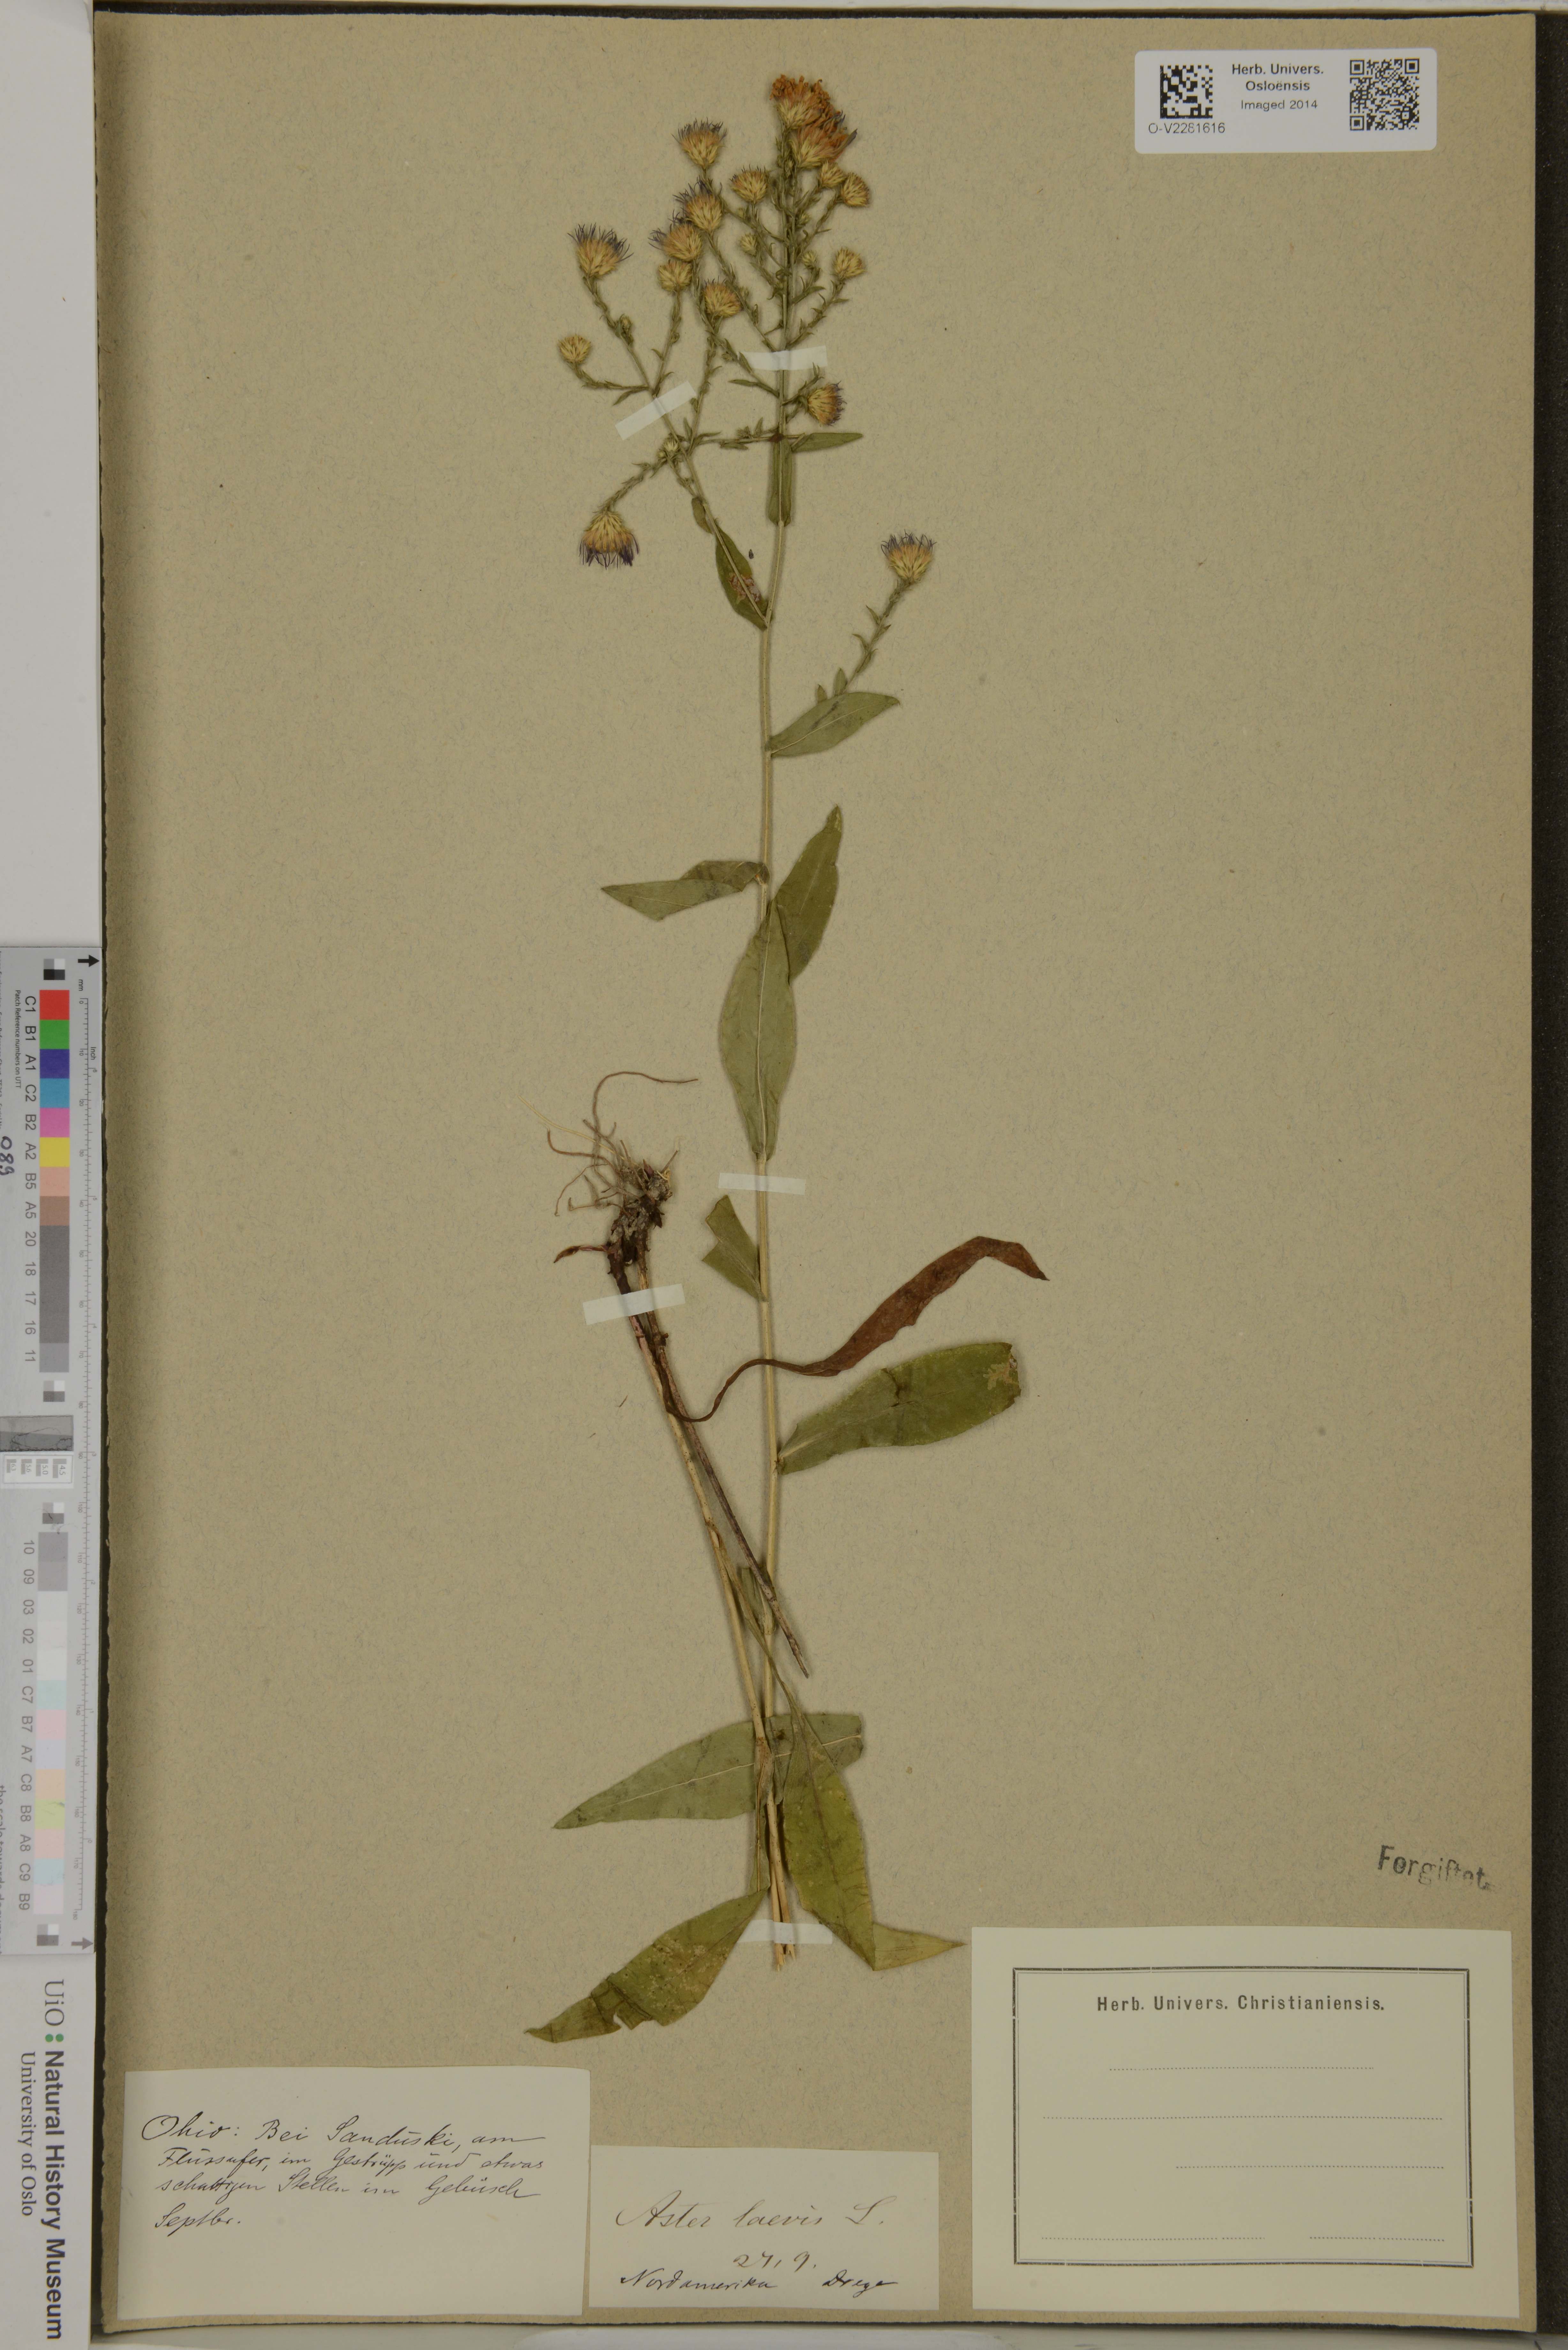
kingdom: Plantae
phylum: Tracheophyta
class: Magnoliopsida
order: Asterales
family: Asteraceae
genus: Symphyotrichum
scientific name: Symphyotrichum laeve
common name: Glaucous aster
